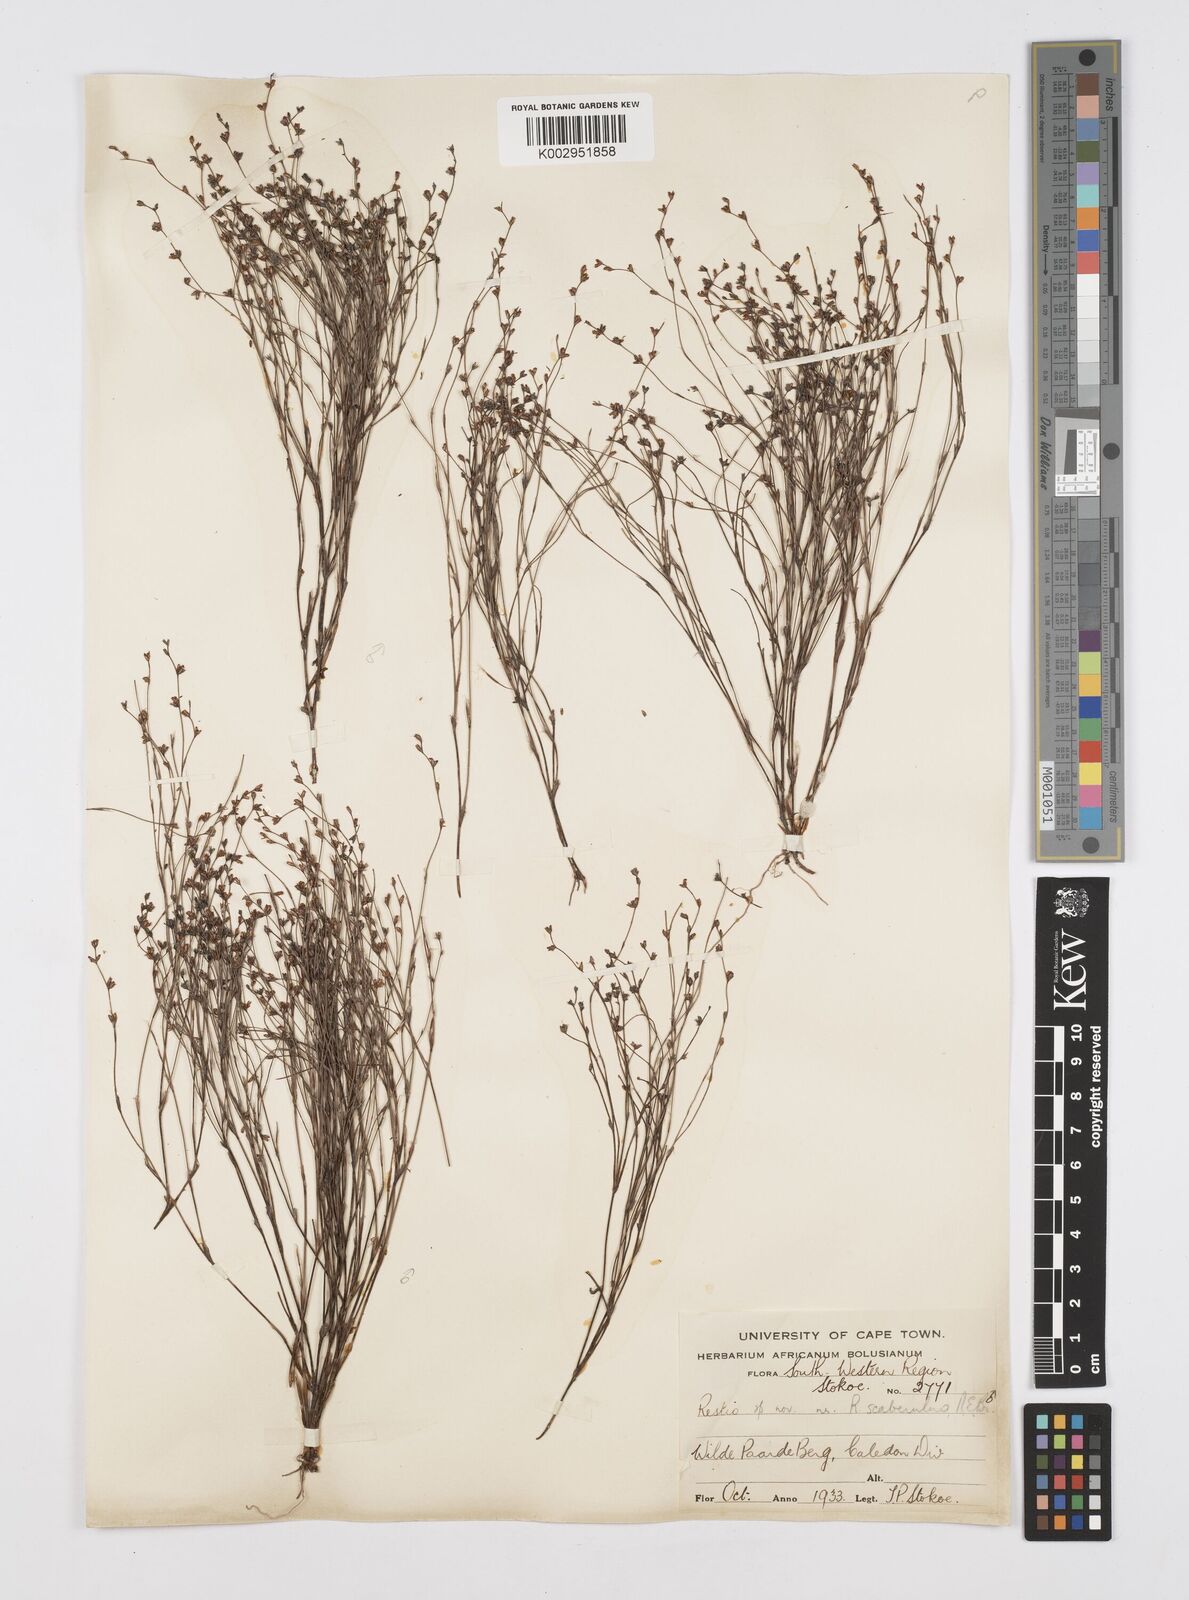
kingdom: Plantae
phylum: Tracheophyta
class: Liliopsida
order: Poales
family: Restionaceae
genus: Restio
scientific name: Restio
